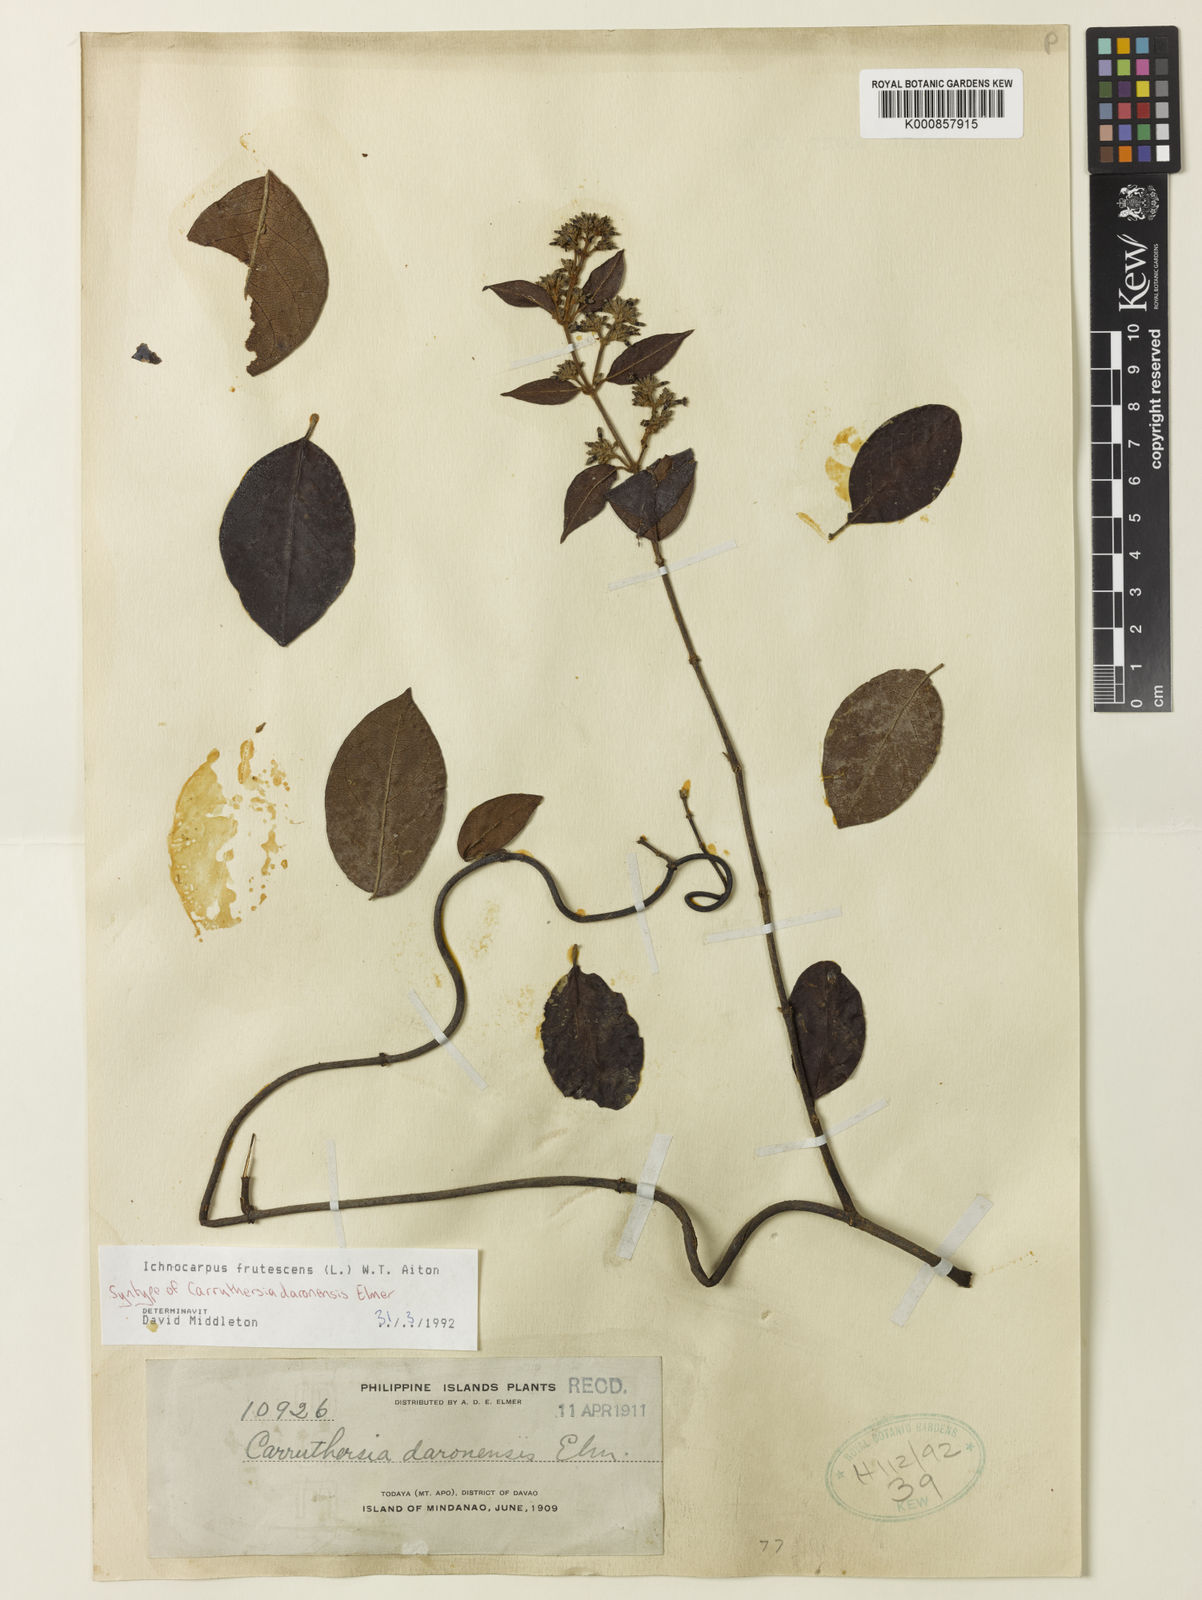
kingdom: Plantae
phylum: Tracheophyta
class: Magnoliopsida
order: Gentianales
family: Apocynaceae
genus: Ichnocarpus
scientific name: Ichnocarpus frutescens
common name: Ichnocarpus
